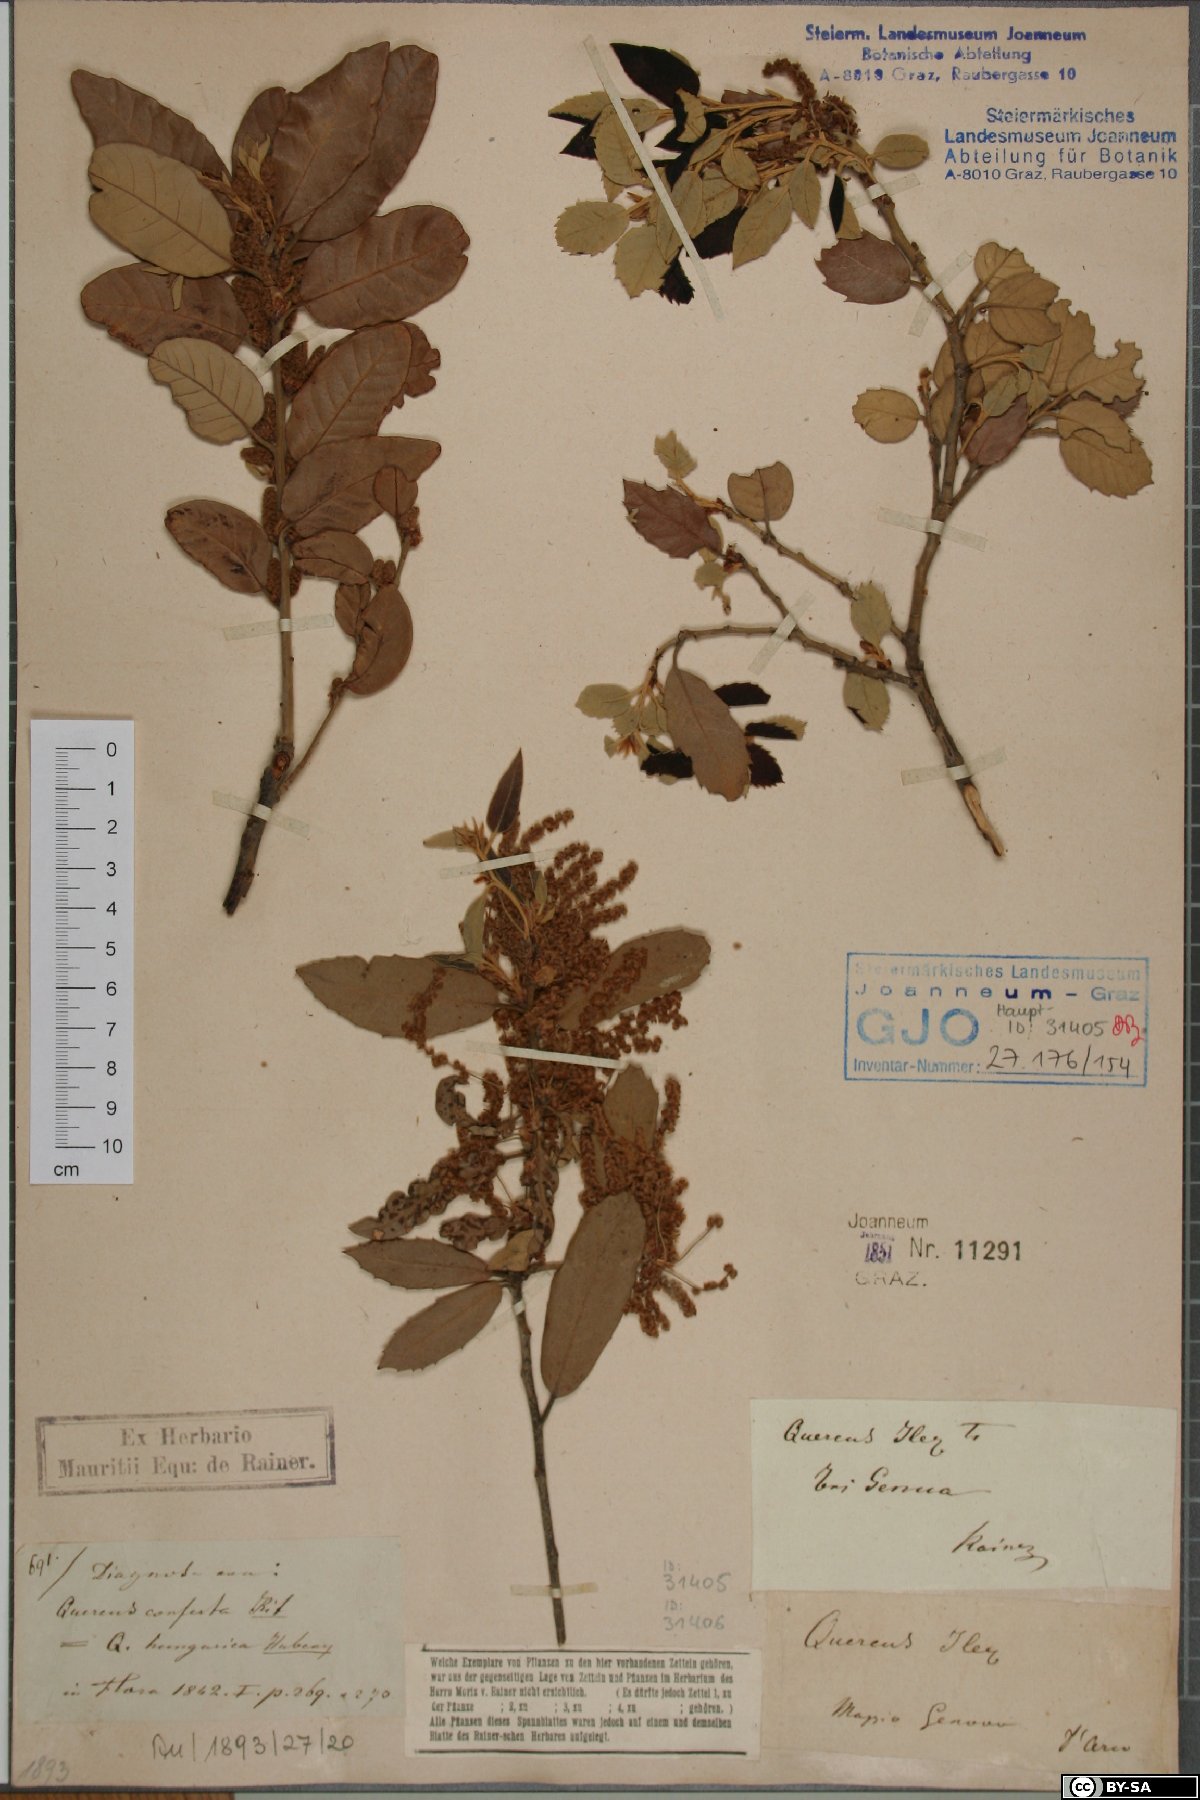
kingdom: Plantae
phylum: Tracheophyta
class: Liliopsida
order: Poales
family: Cyperaceae
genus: Carex
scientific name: Carex davalliana
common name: Davall's sedge
